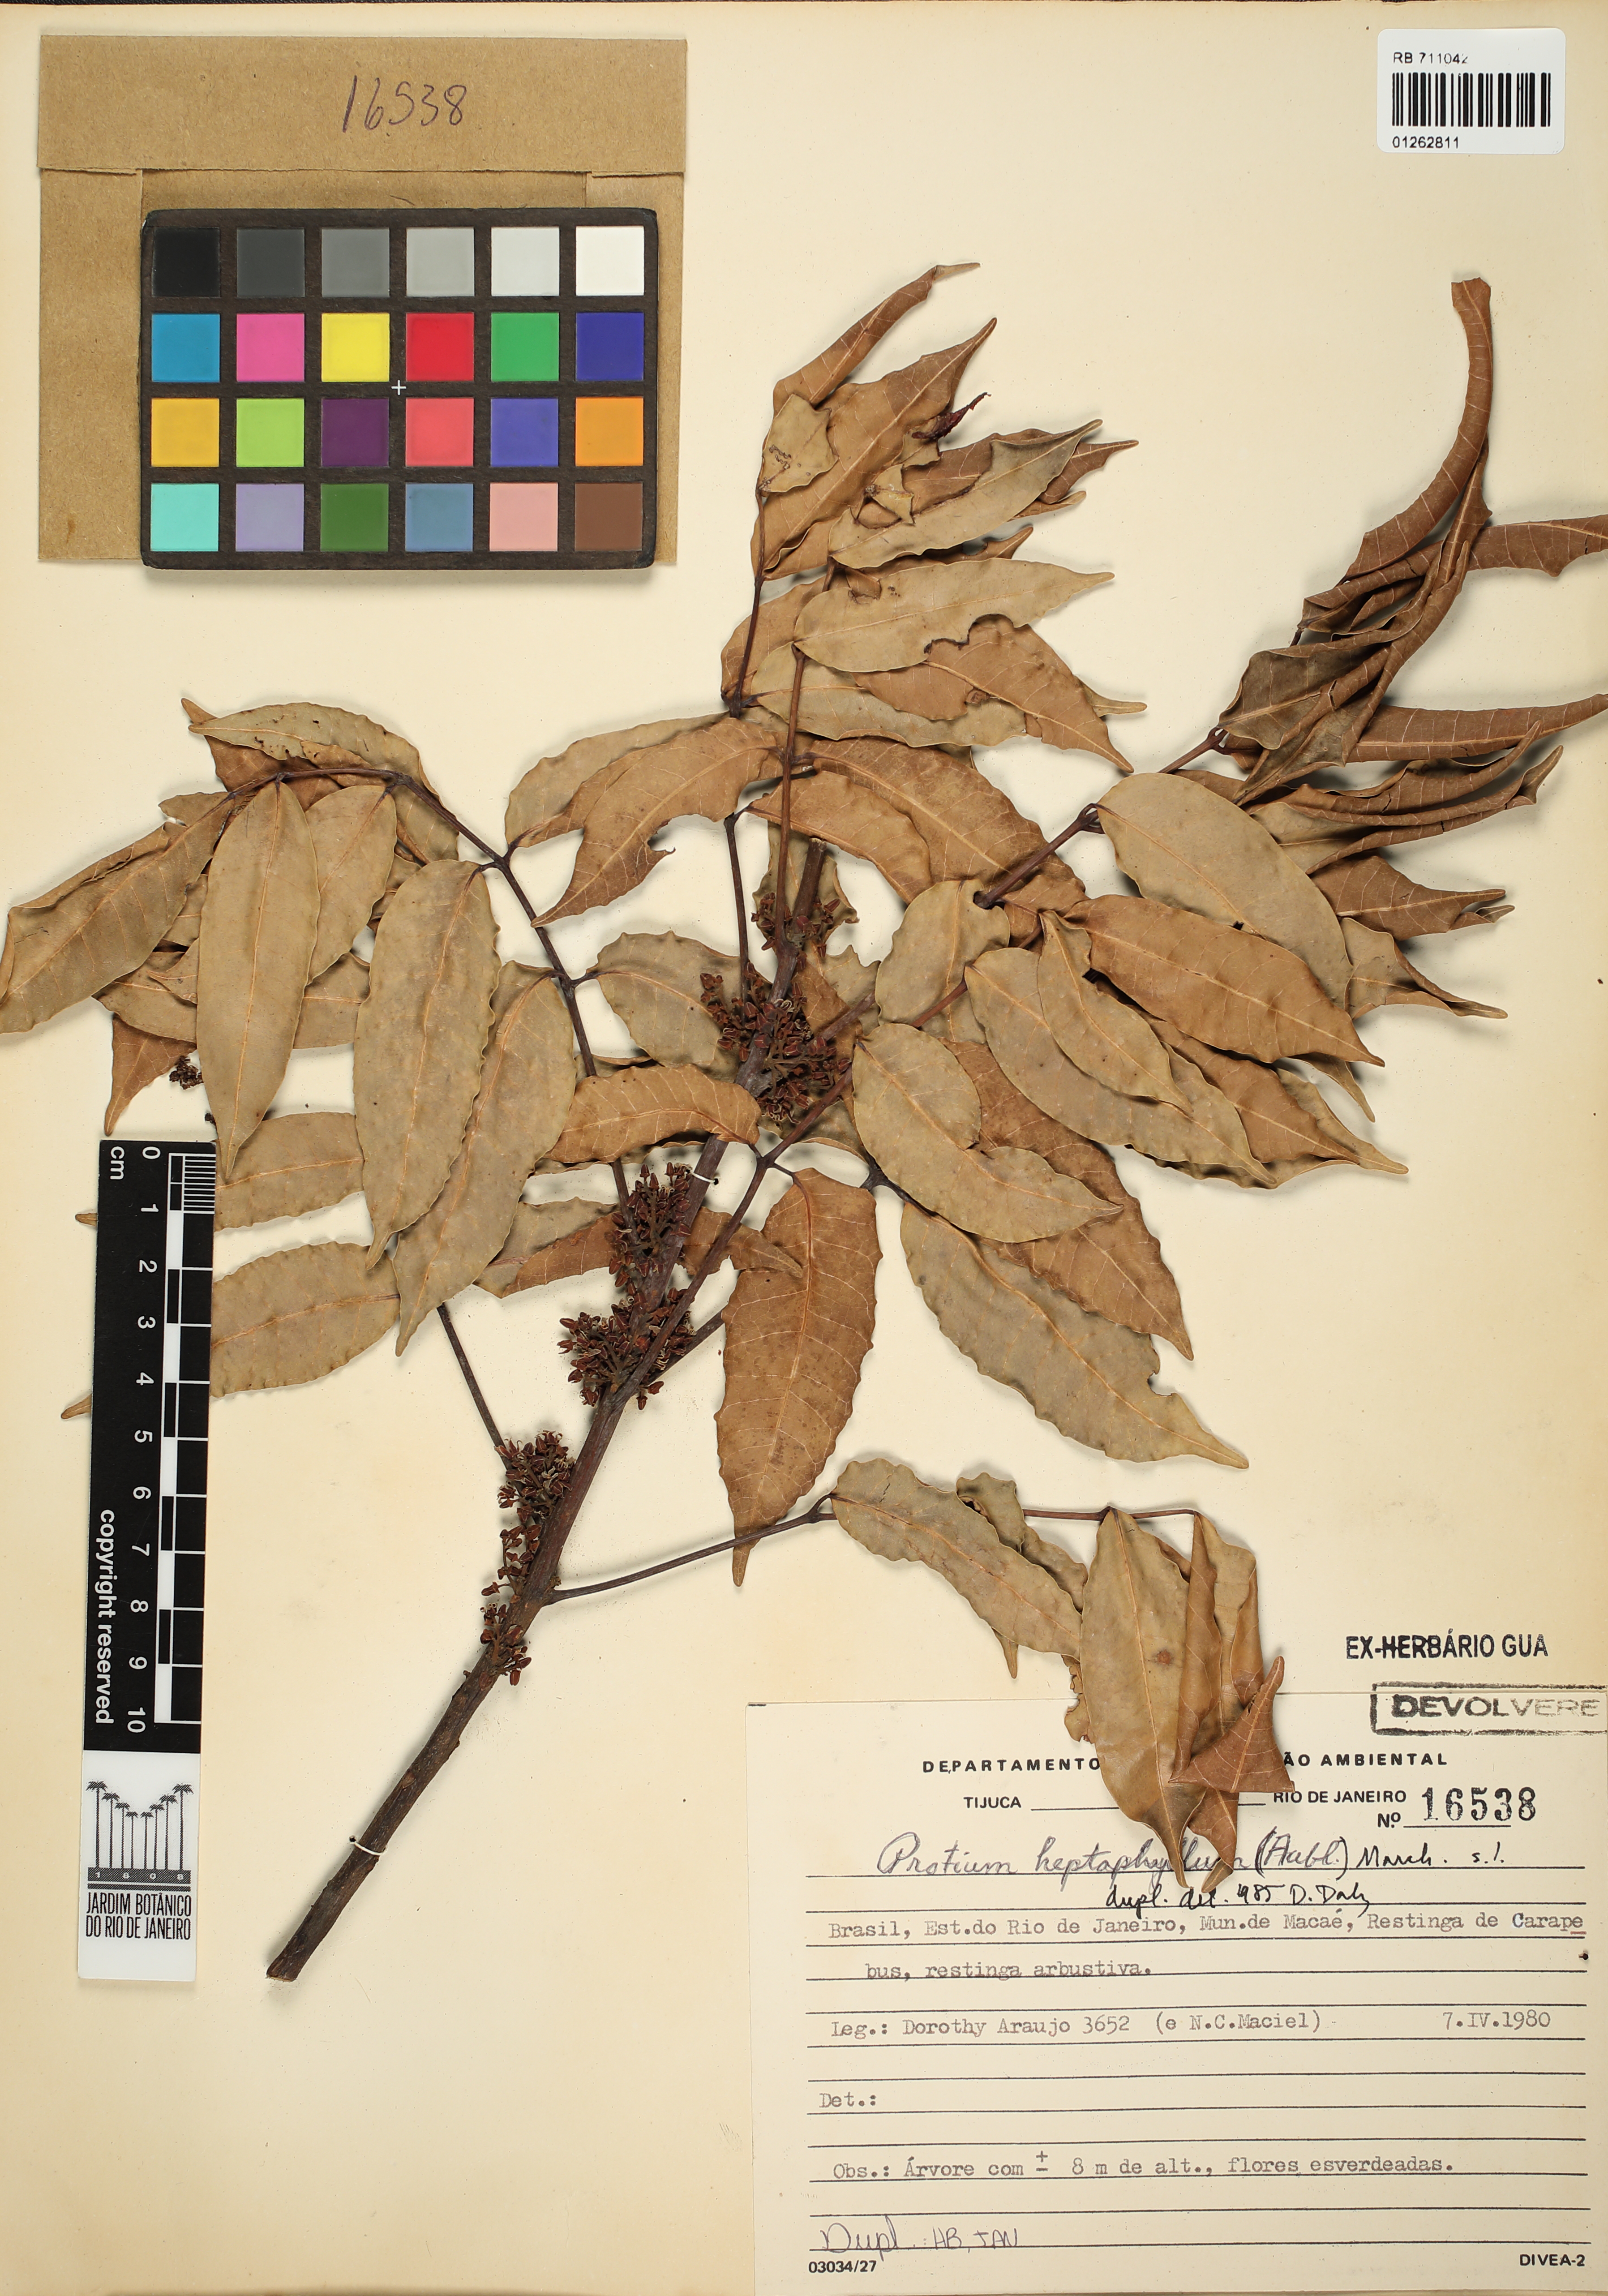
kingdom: Plantae
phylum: Tracheophyta
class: Magnoliopsida
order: Sapindales
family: Burseraceae
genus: Protium
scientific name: Protium heptaphyllum
